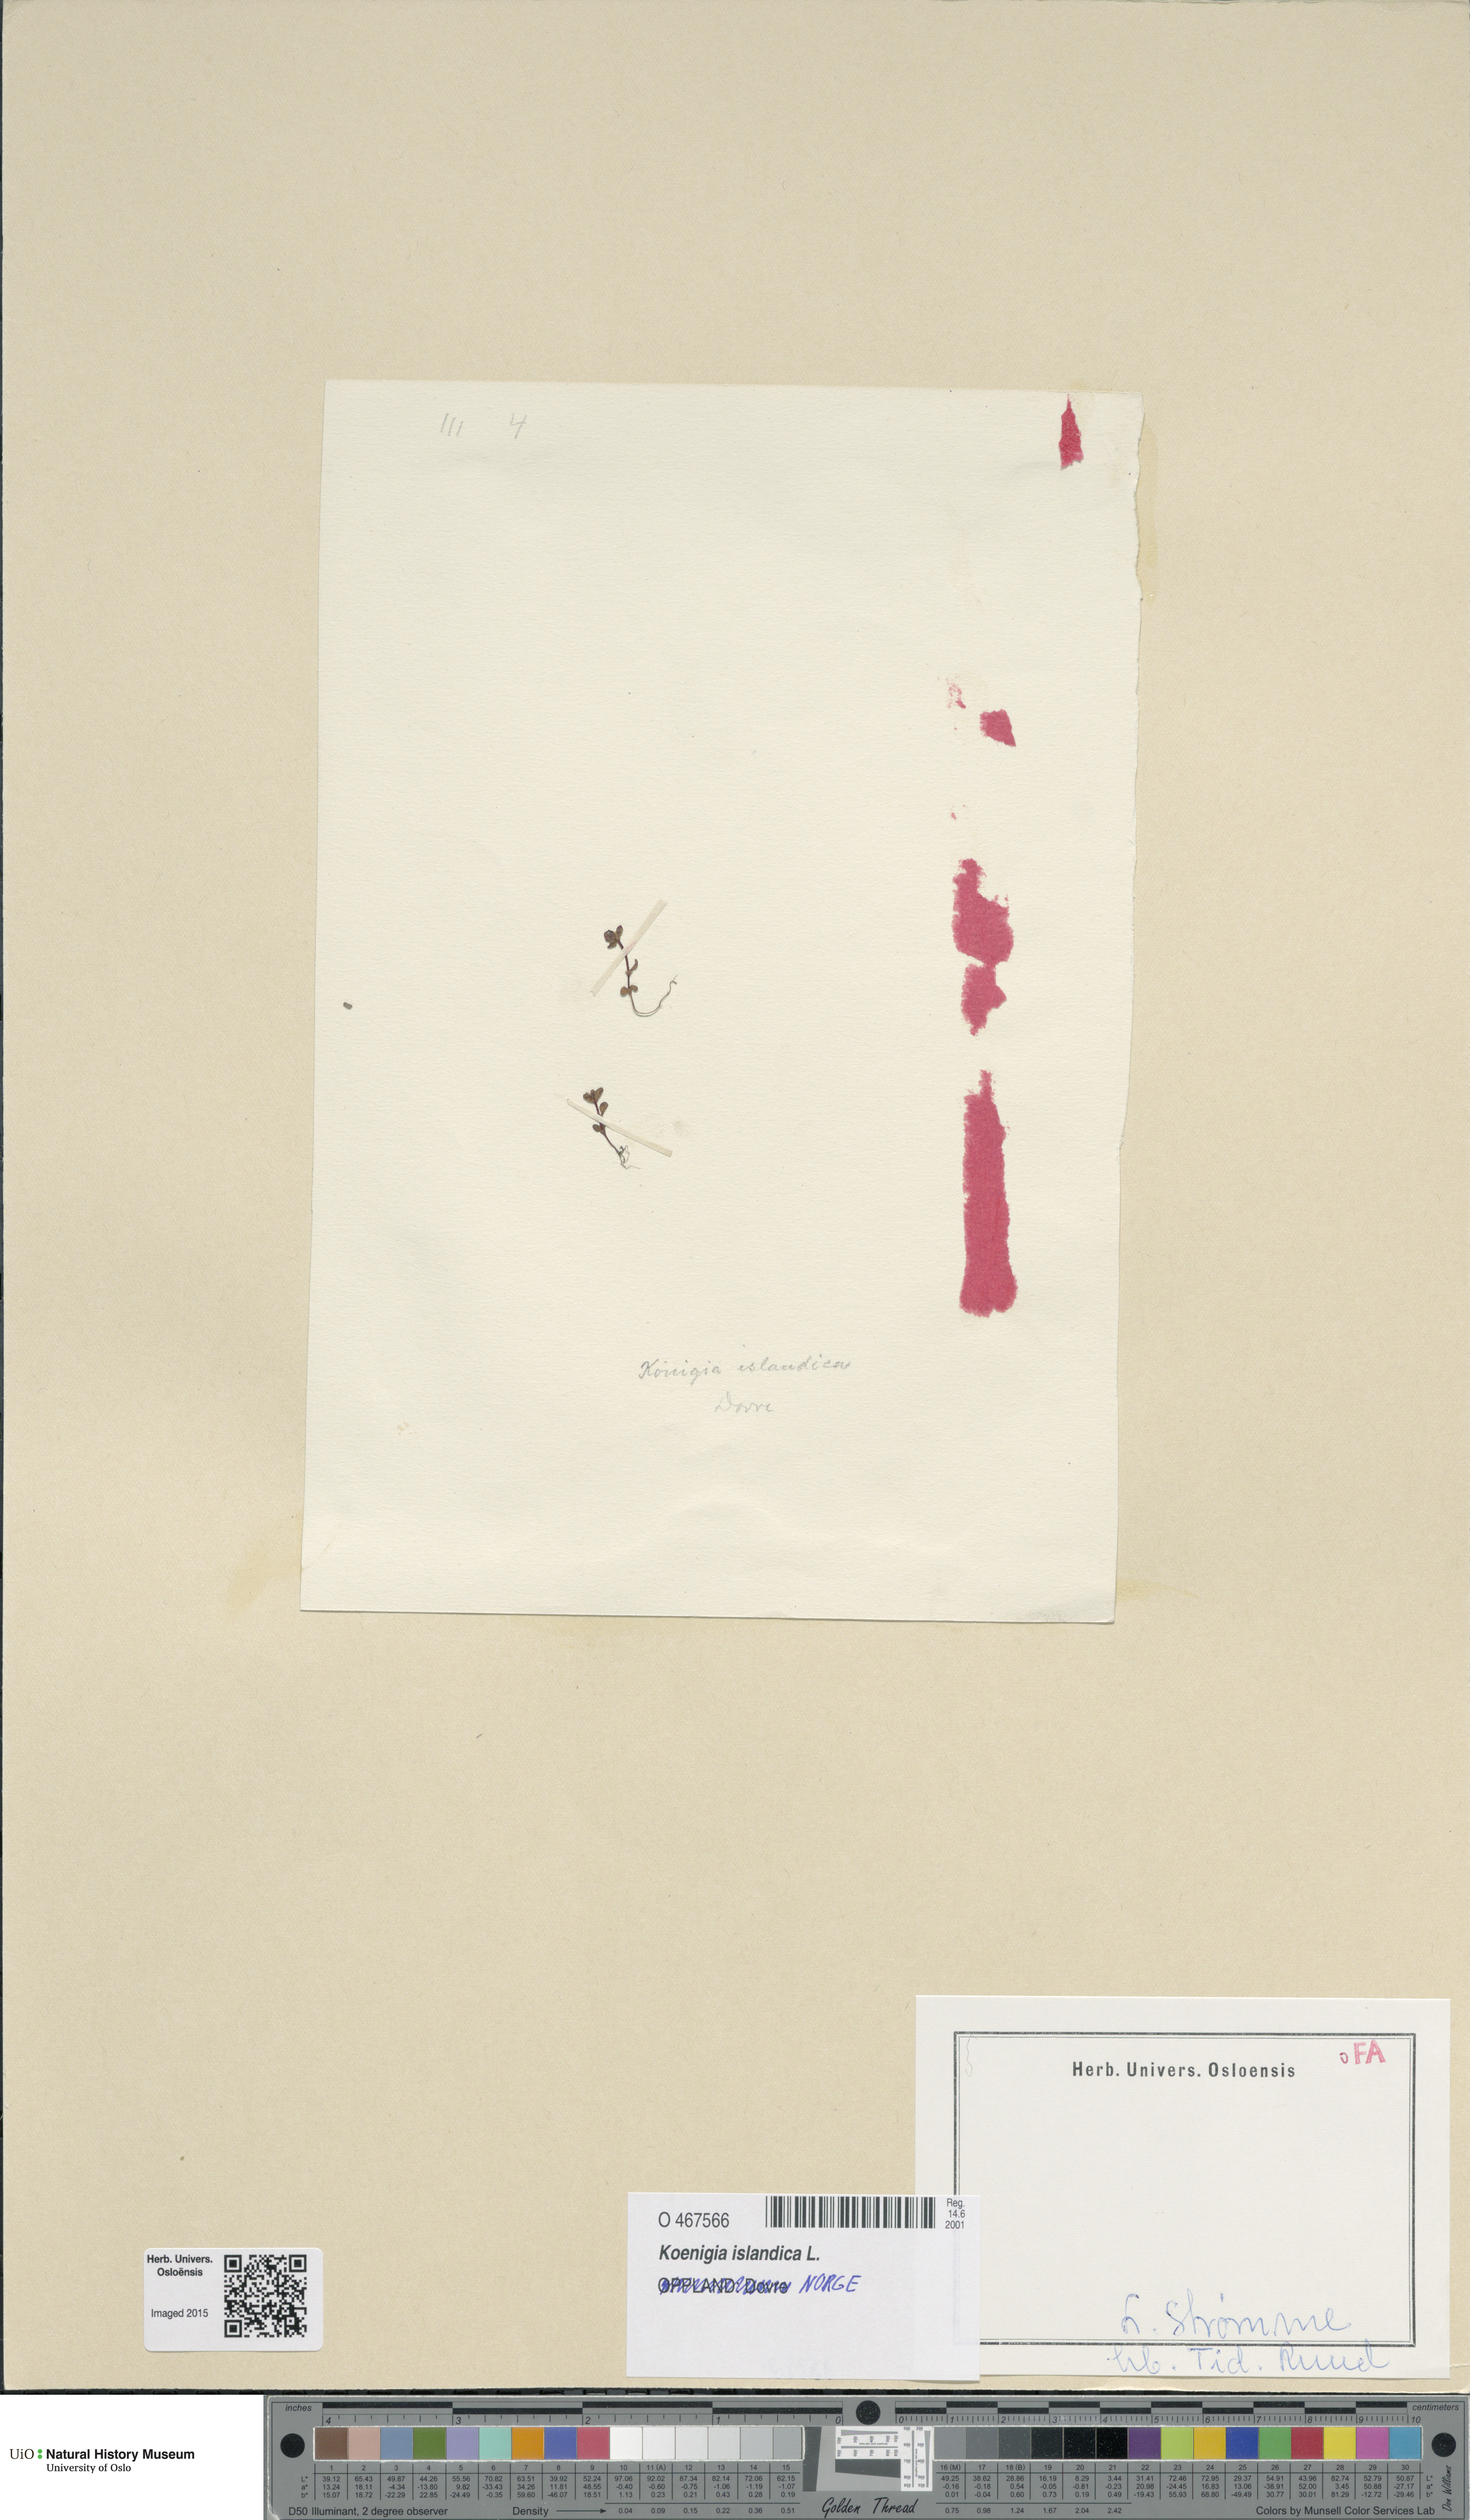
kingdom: Plantae
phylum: Tracheophyta
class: Magnoliopsida
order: Caryophyllales
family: Polygonaceae
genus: Koenigia
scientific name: Koenigia islandica
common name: Iceland-purslane
